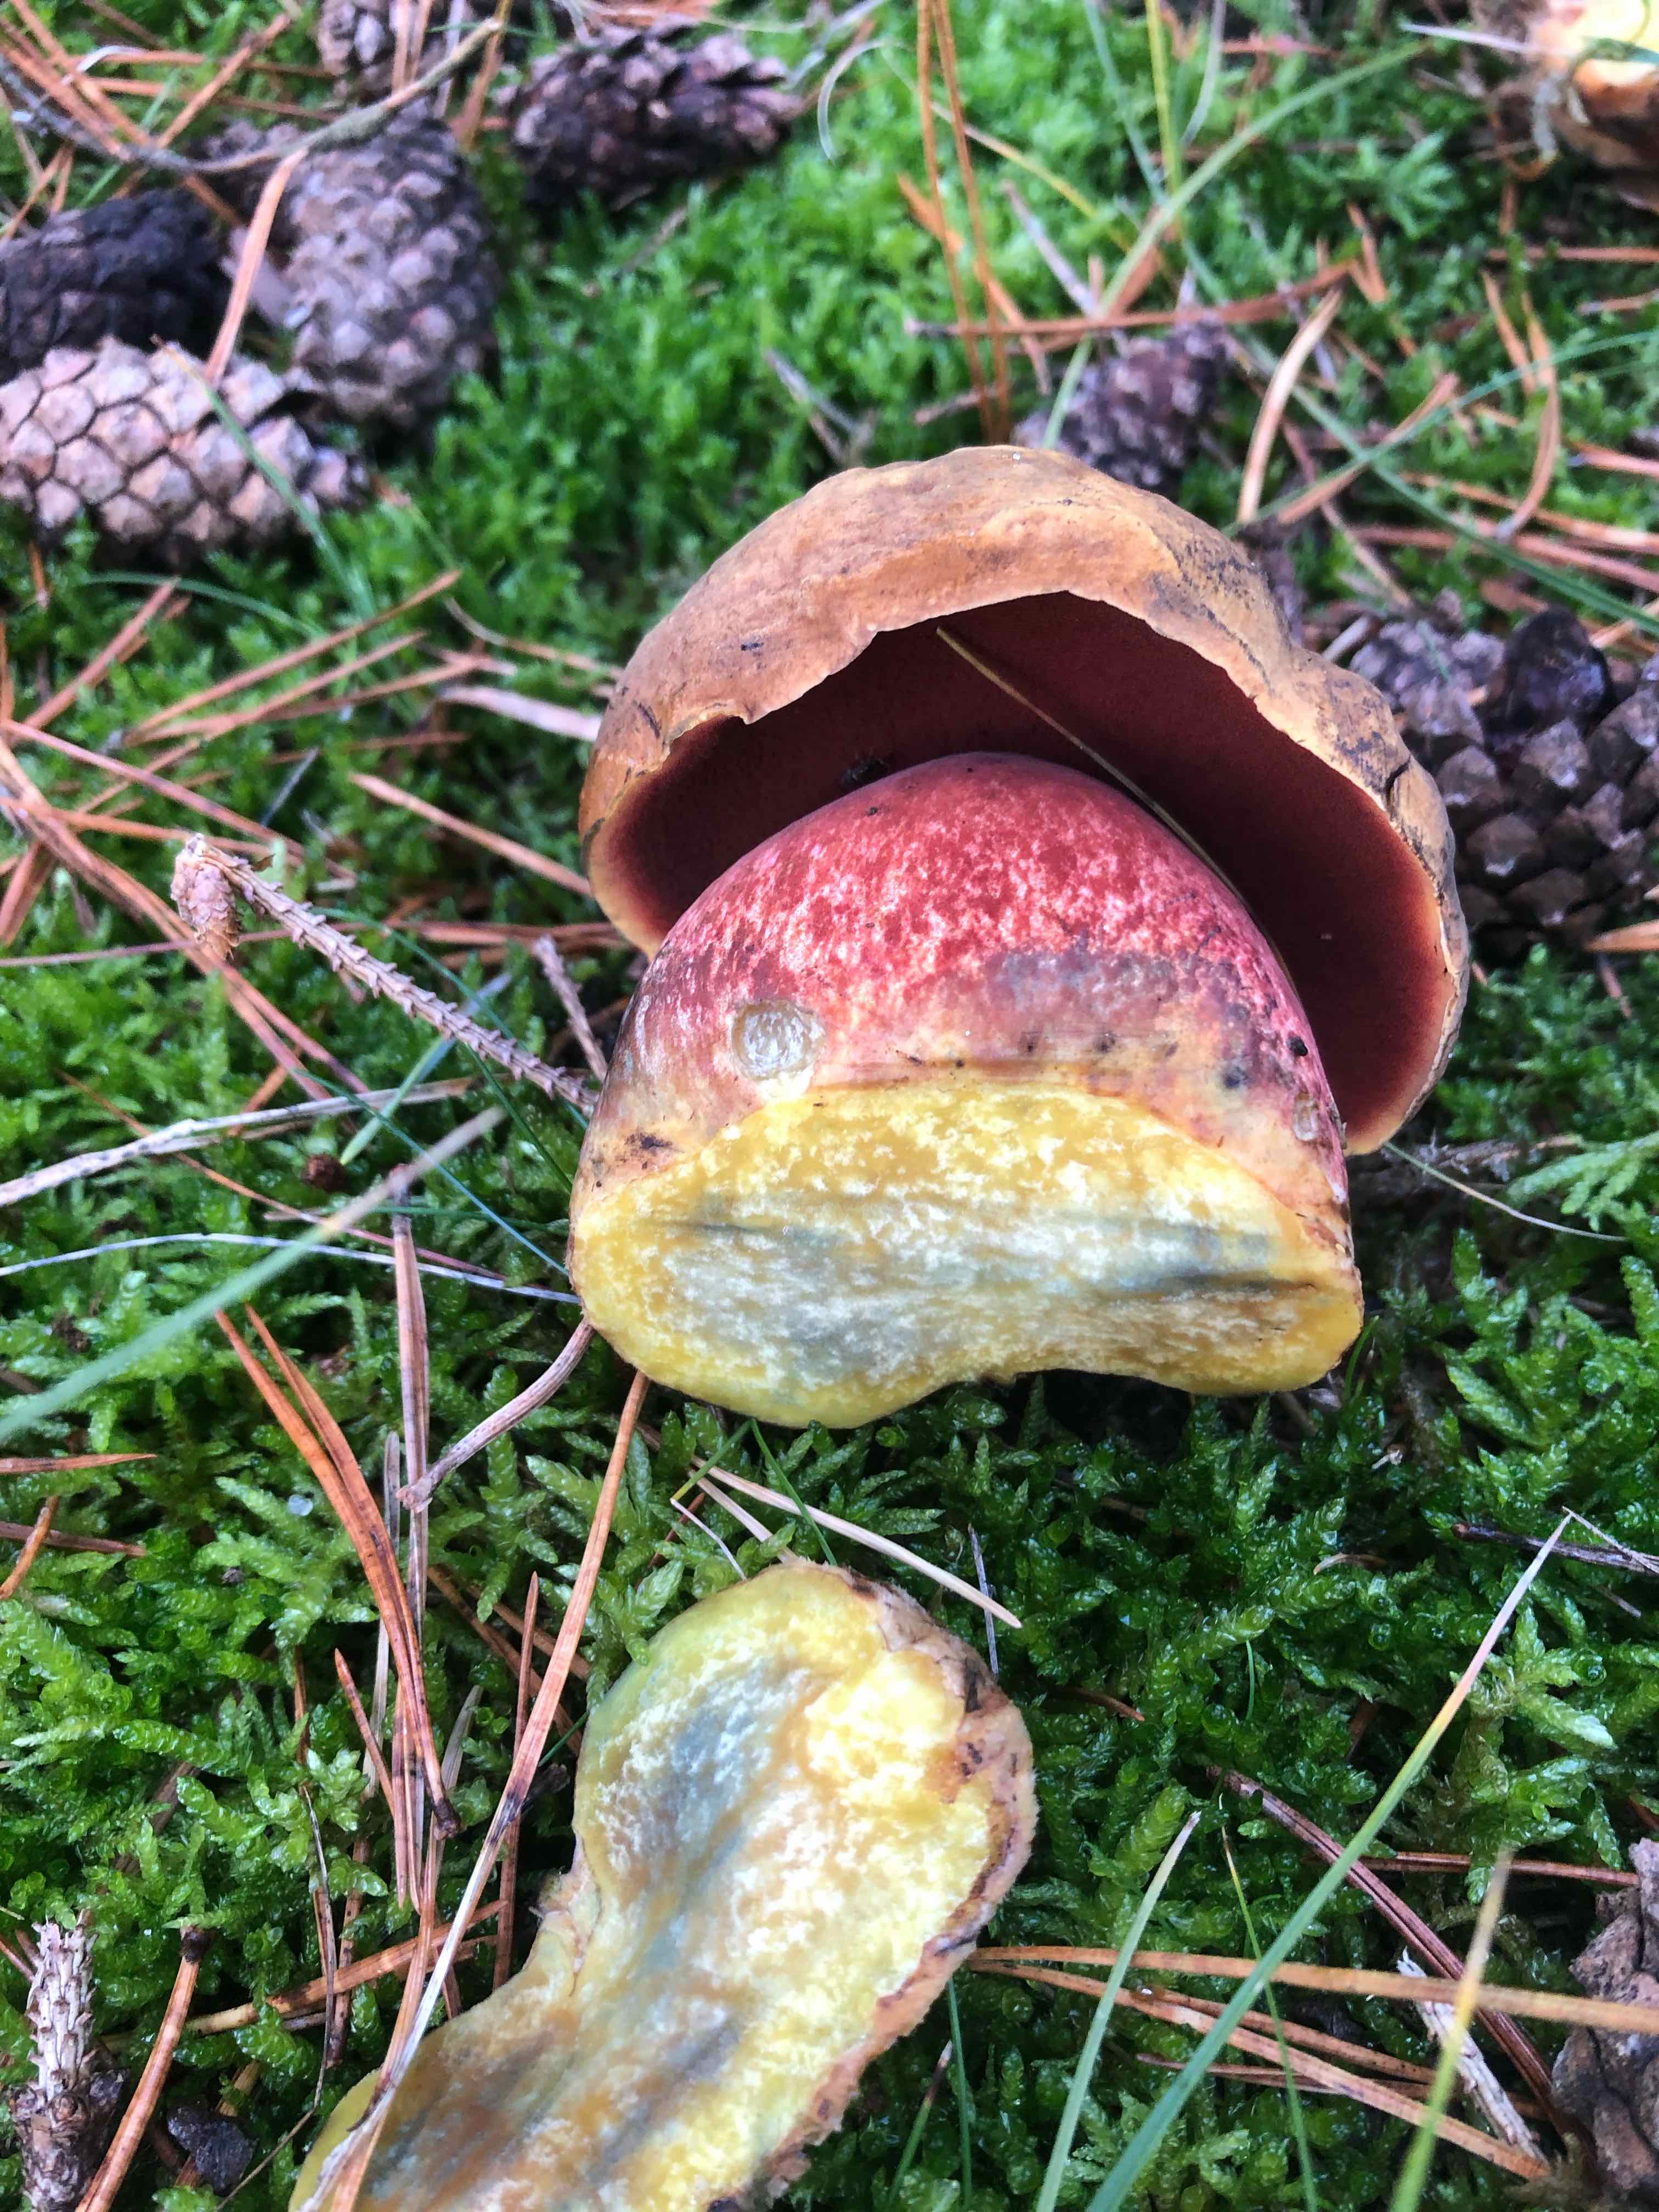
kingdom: Fungi
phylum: Basidiomycota
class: Agaricomycetes
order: Boletales
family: Boletaceae
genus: Neoboletus
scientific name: Neoboletus erythropus
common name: punktstokket indigorørhat
